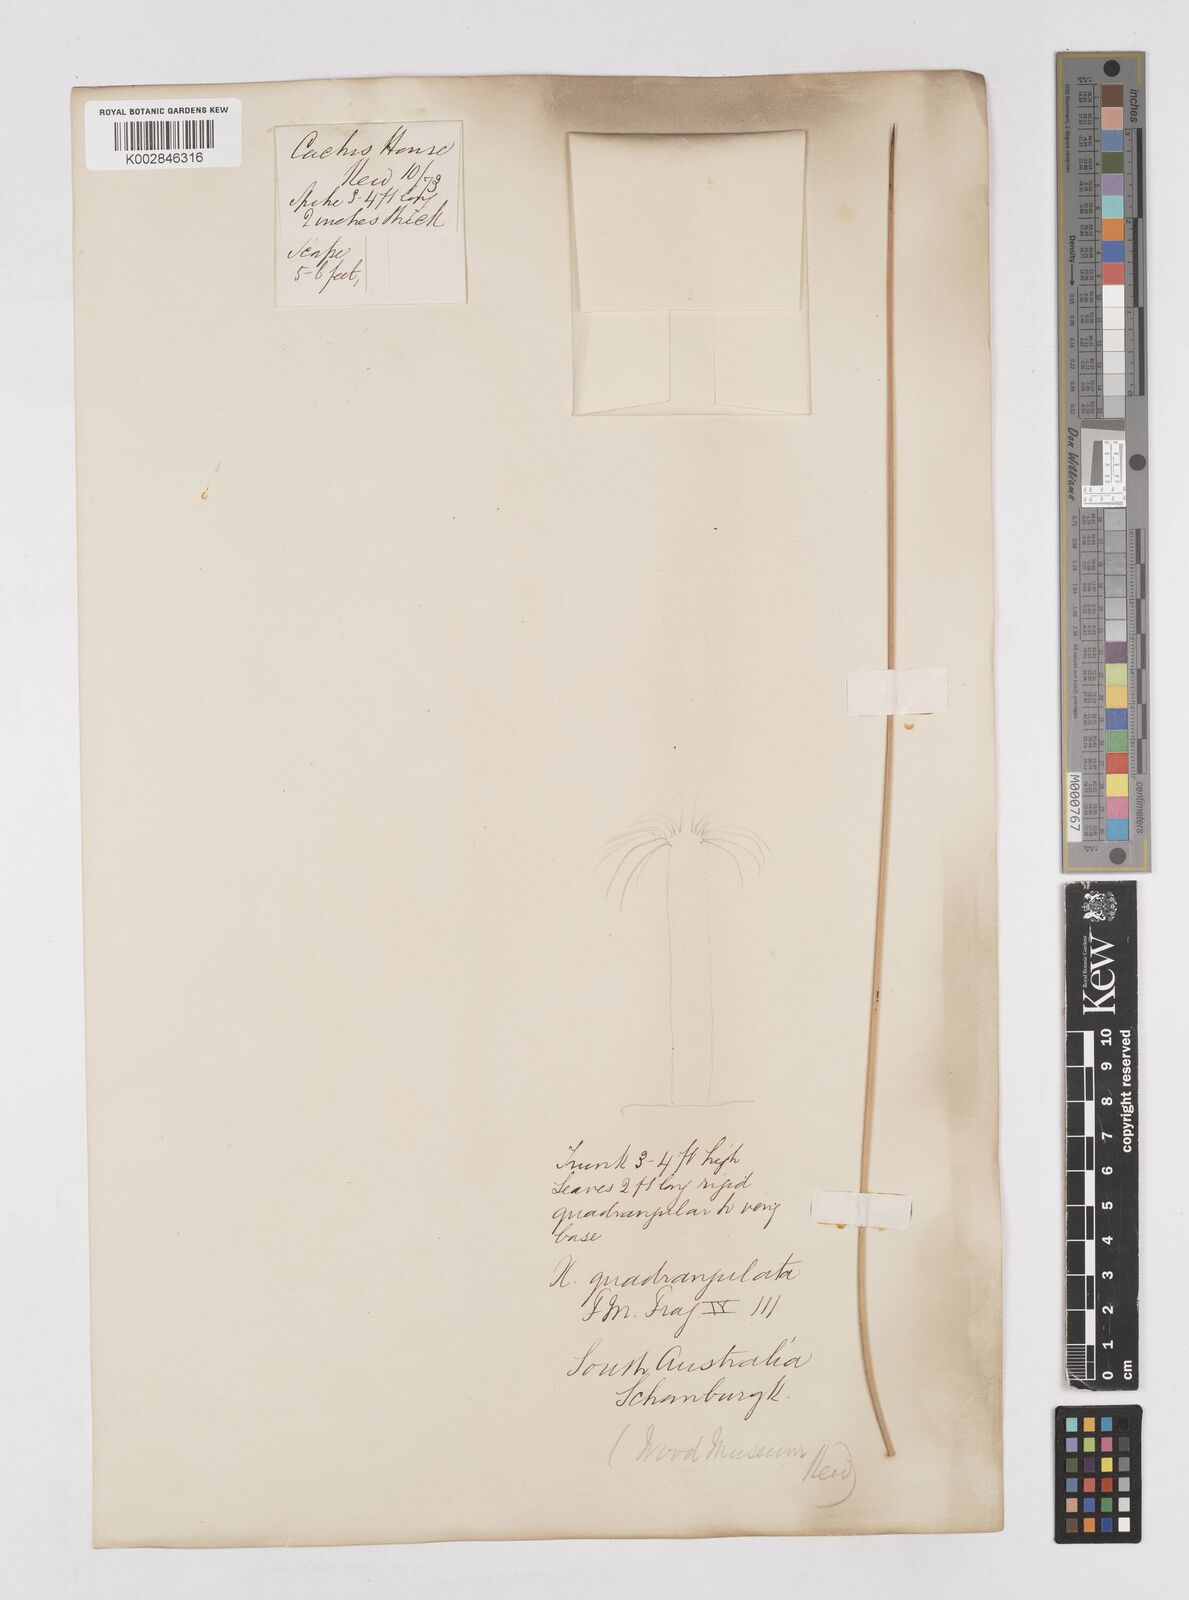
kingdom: Plantae
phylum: Tracheophyta
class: Liliopsida
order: Asparagales
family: Asphodelaceae
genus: Xanthorrhoea
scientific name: Xanthorrhoea quadrangulata
